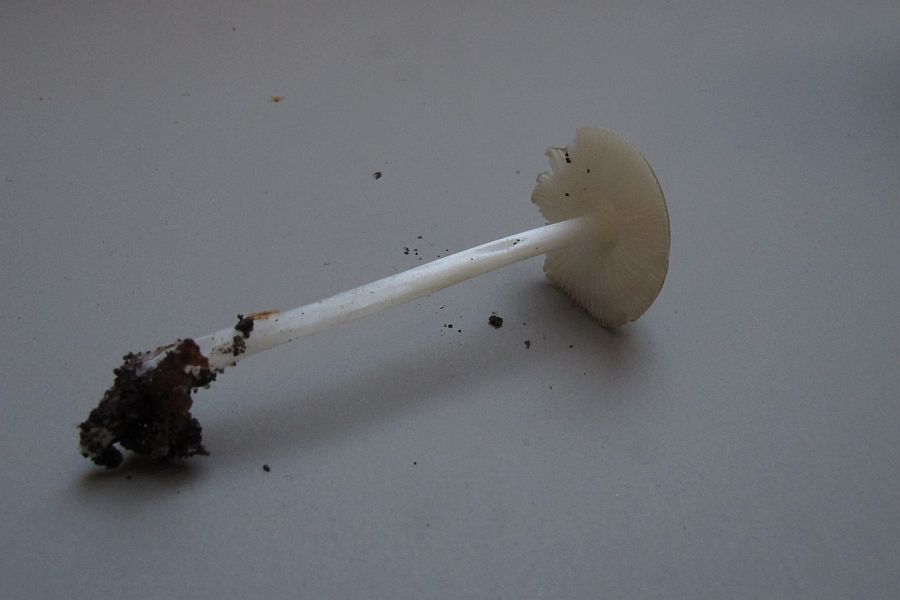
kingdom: Fungi
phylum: Basidiomycota
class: Agaricomycetes
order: Agaricales
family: Porotheleaceae
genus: Hydropodia
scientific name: Hydropodia subalpina
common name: vår-fnugfod
